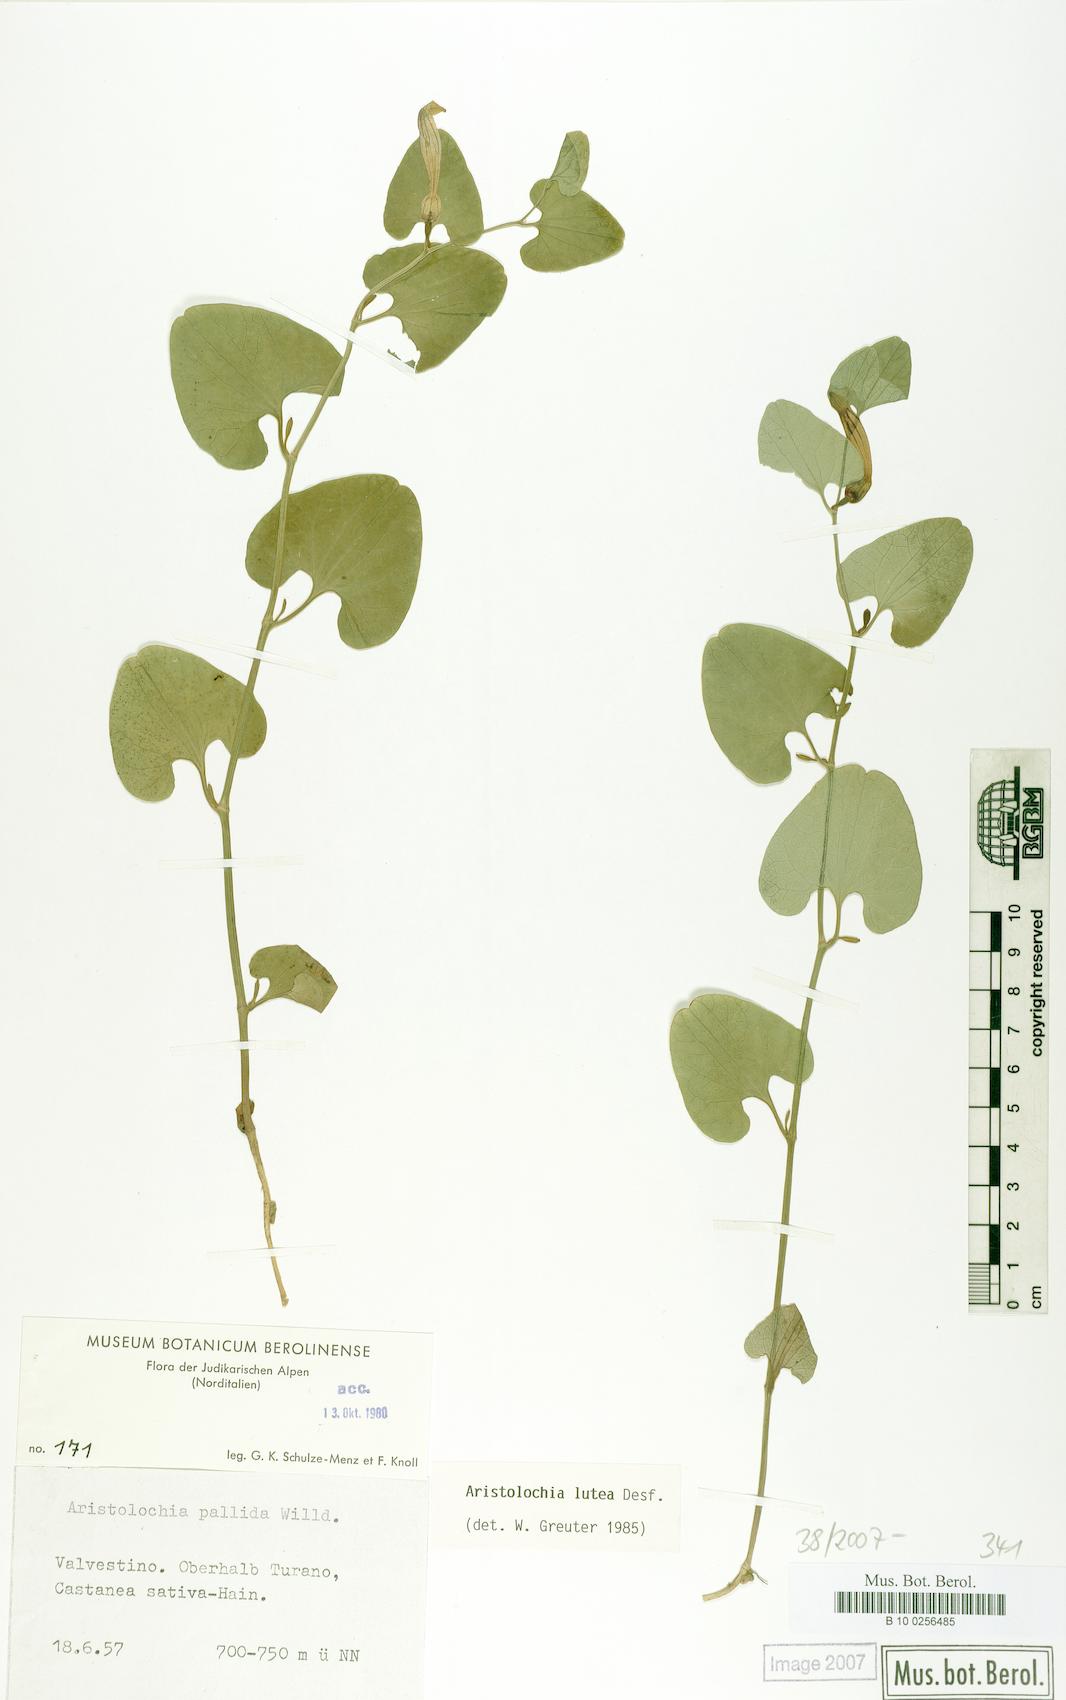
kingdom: Plantae
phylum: Tracheophyta
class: Magnoliopsida
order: Piperales
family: Aristolochiaceae
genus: Aristolochia
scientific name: Aristolochia lutea
